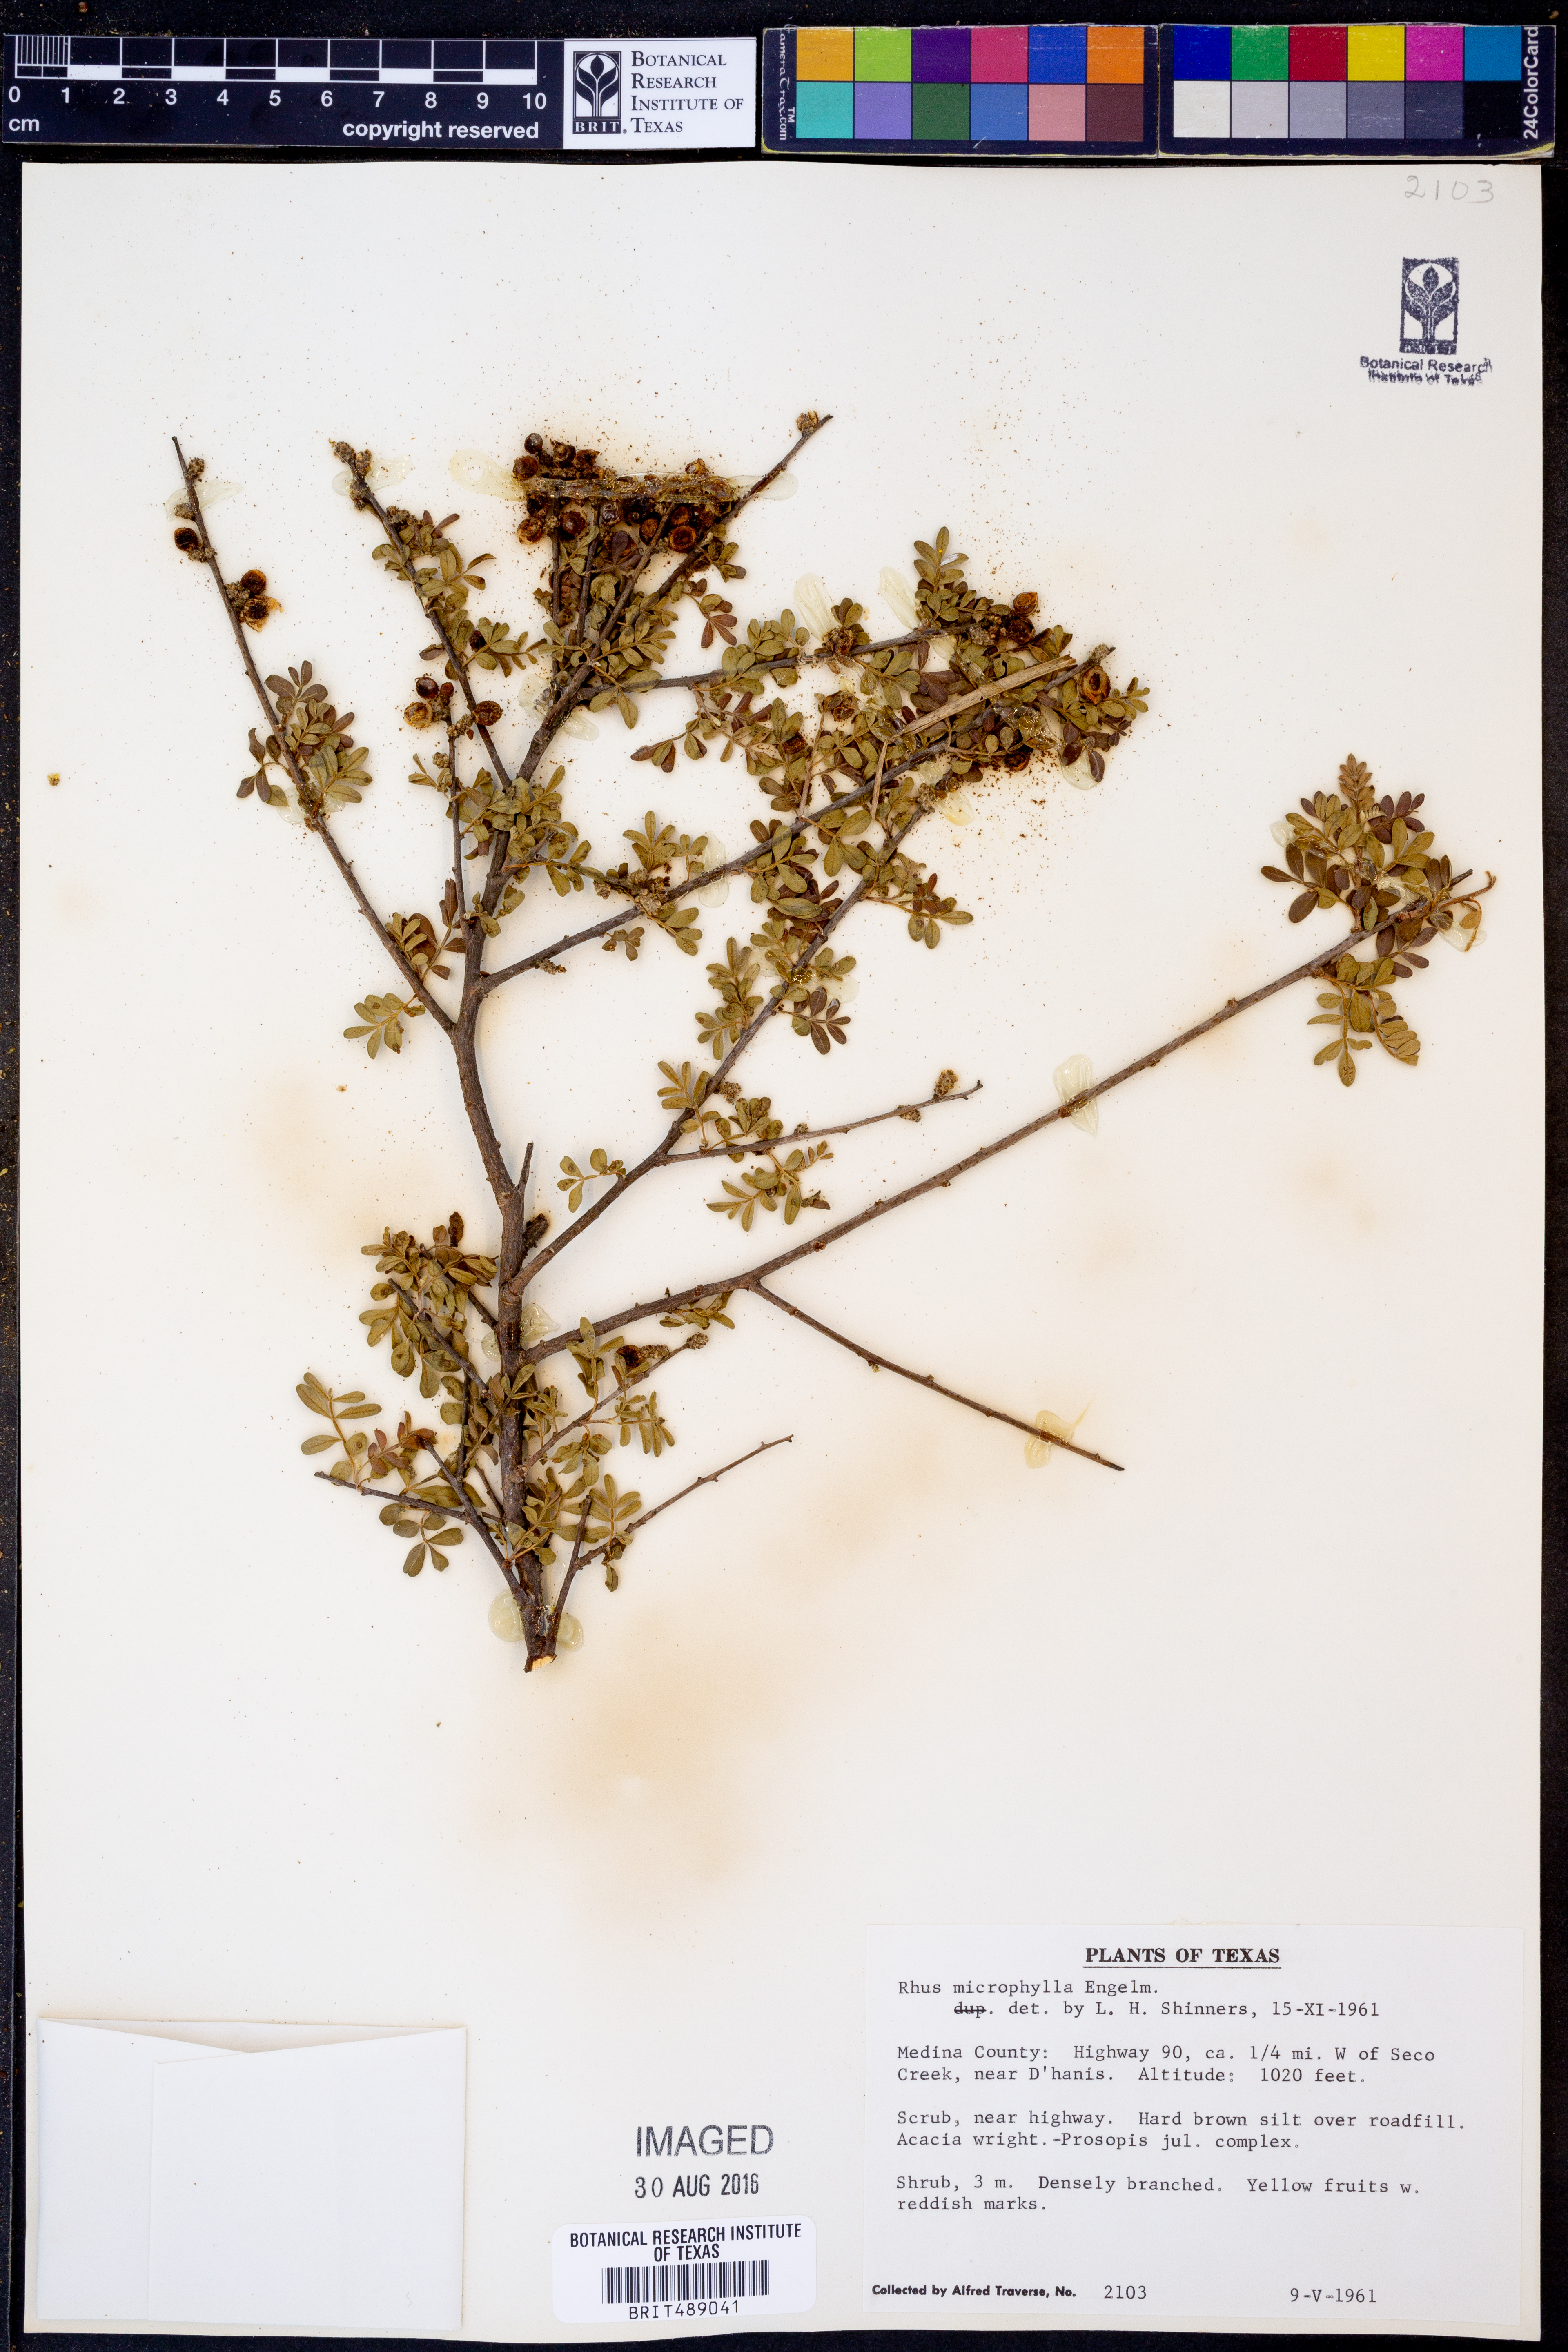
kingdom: Plantae
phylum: Tracheophyta
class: Magnoliopsida
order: Sapindales
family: Anacardiaceae
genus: Rhus
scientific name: Rhus microphylla
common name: Desert sumac
